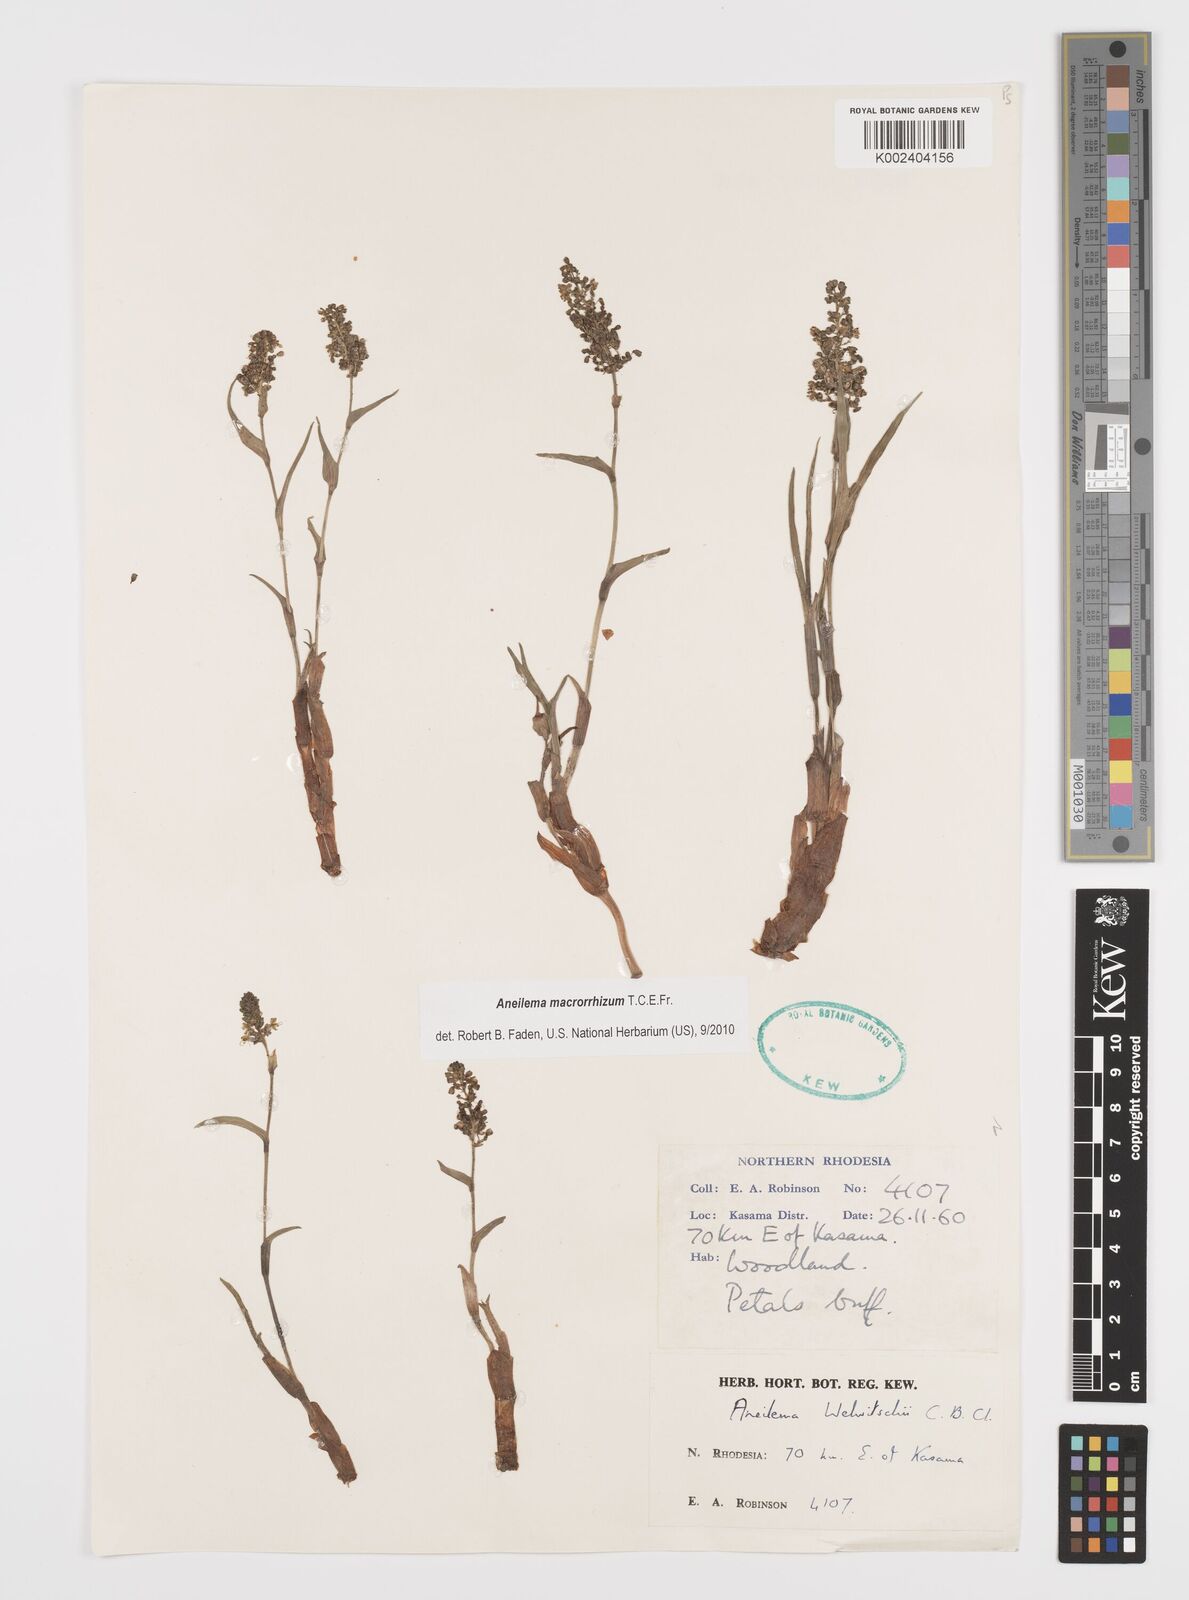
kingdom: Plantae
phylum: Tracheophyta
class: Liliopsida
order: Commelinales
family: Commelinaceae
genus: Aneilema
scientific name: Aneilema macrorrhizum
